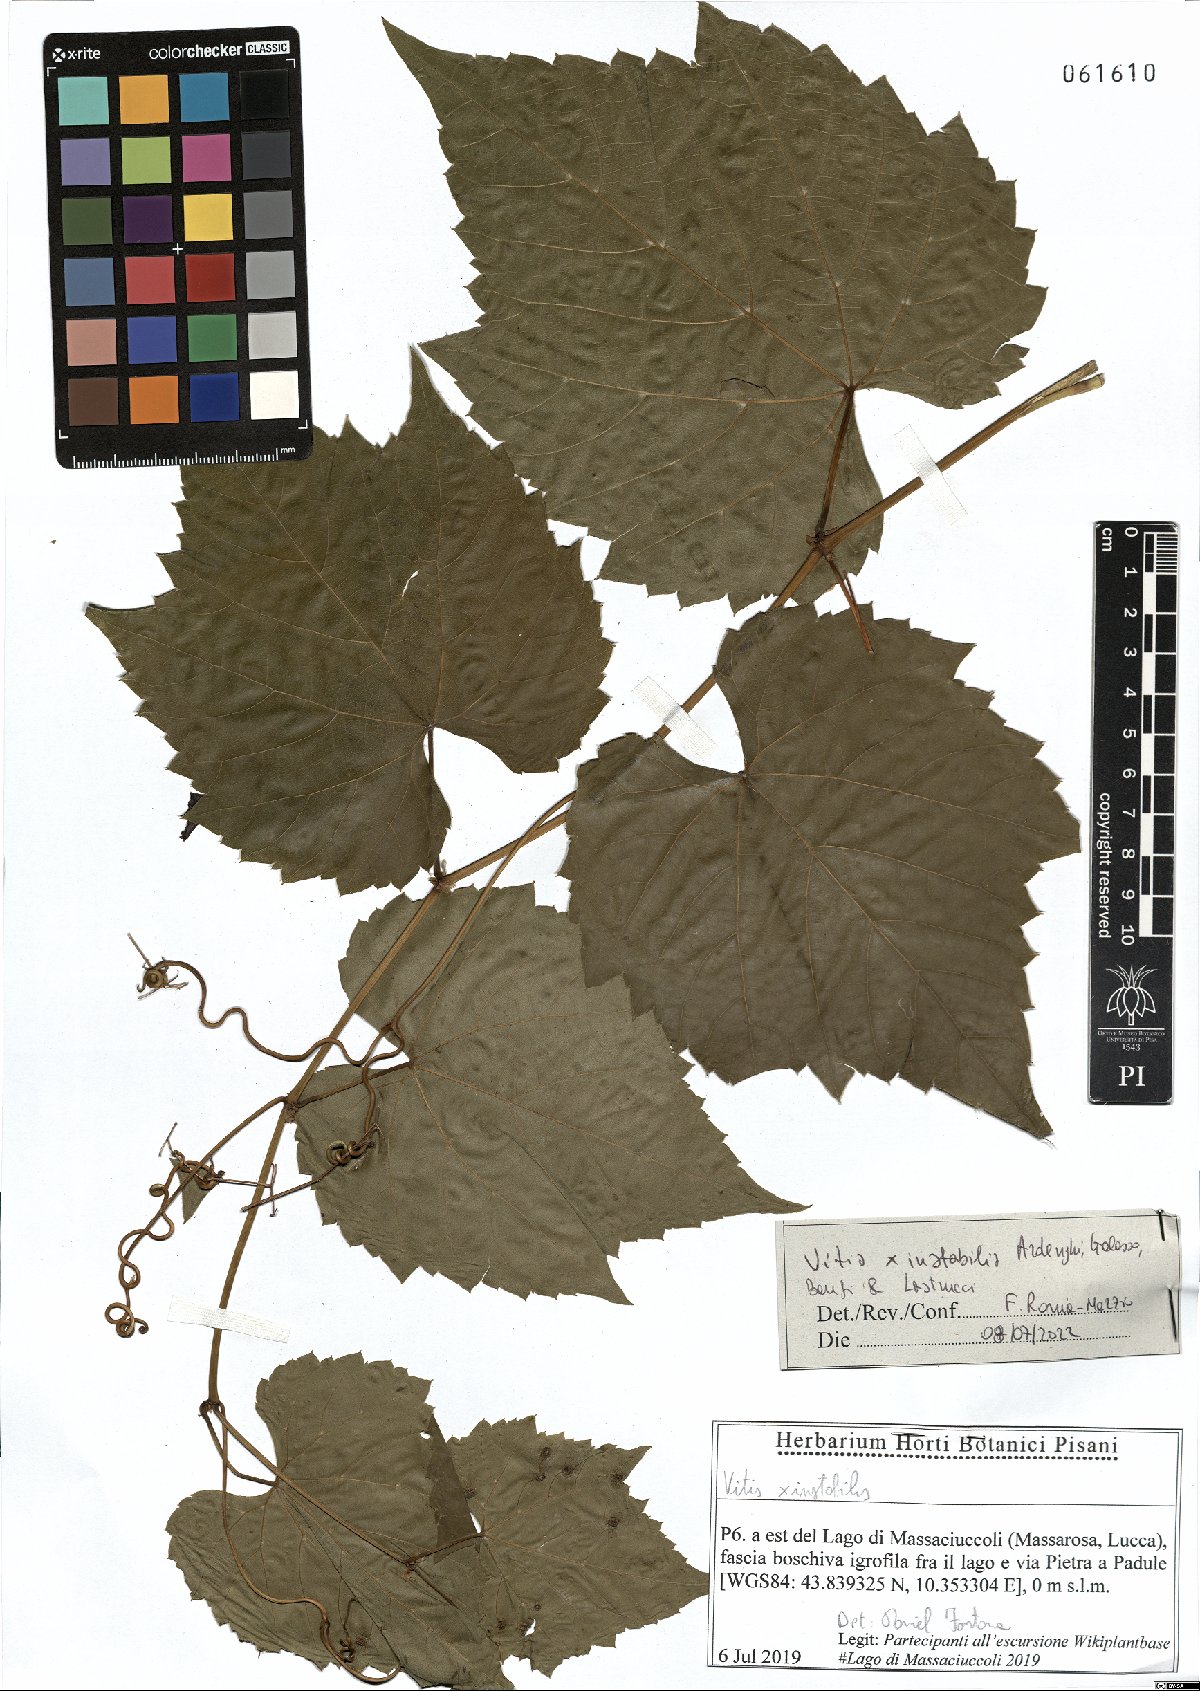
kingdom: Plantae
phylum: Tracheophyta
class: Magnoliopsida
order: Vitales
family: Vitaceae
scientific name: Vitaceae
